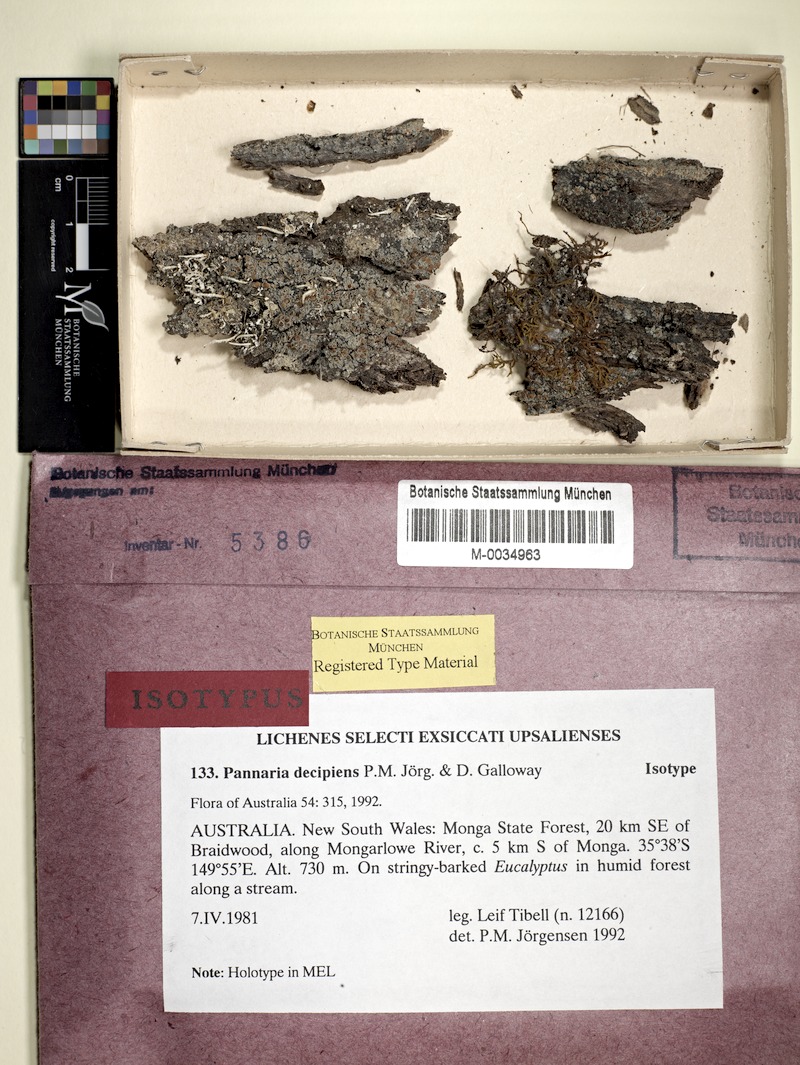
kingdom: Fungi
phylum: Ascomycota
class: Lecanoromycetes
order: Peltigerales
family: Pannariaceae
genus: Pannaria
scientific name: Pannaria decipiens
